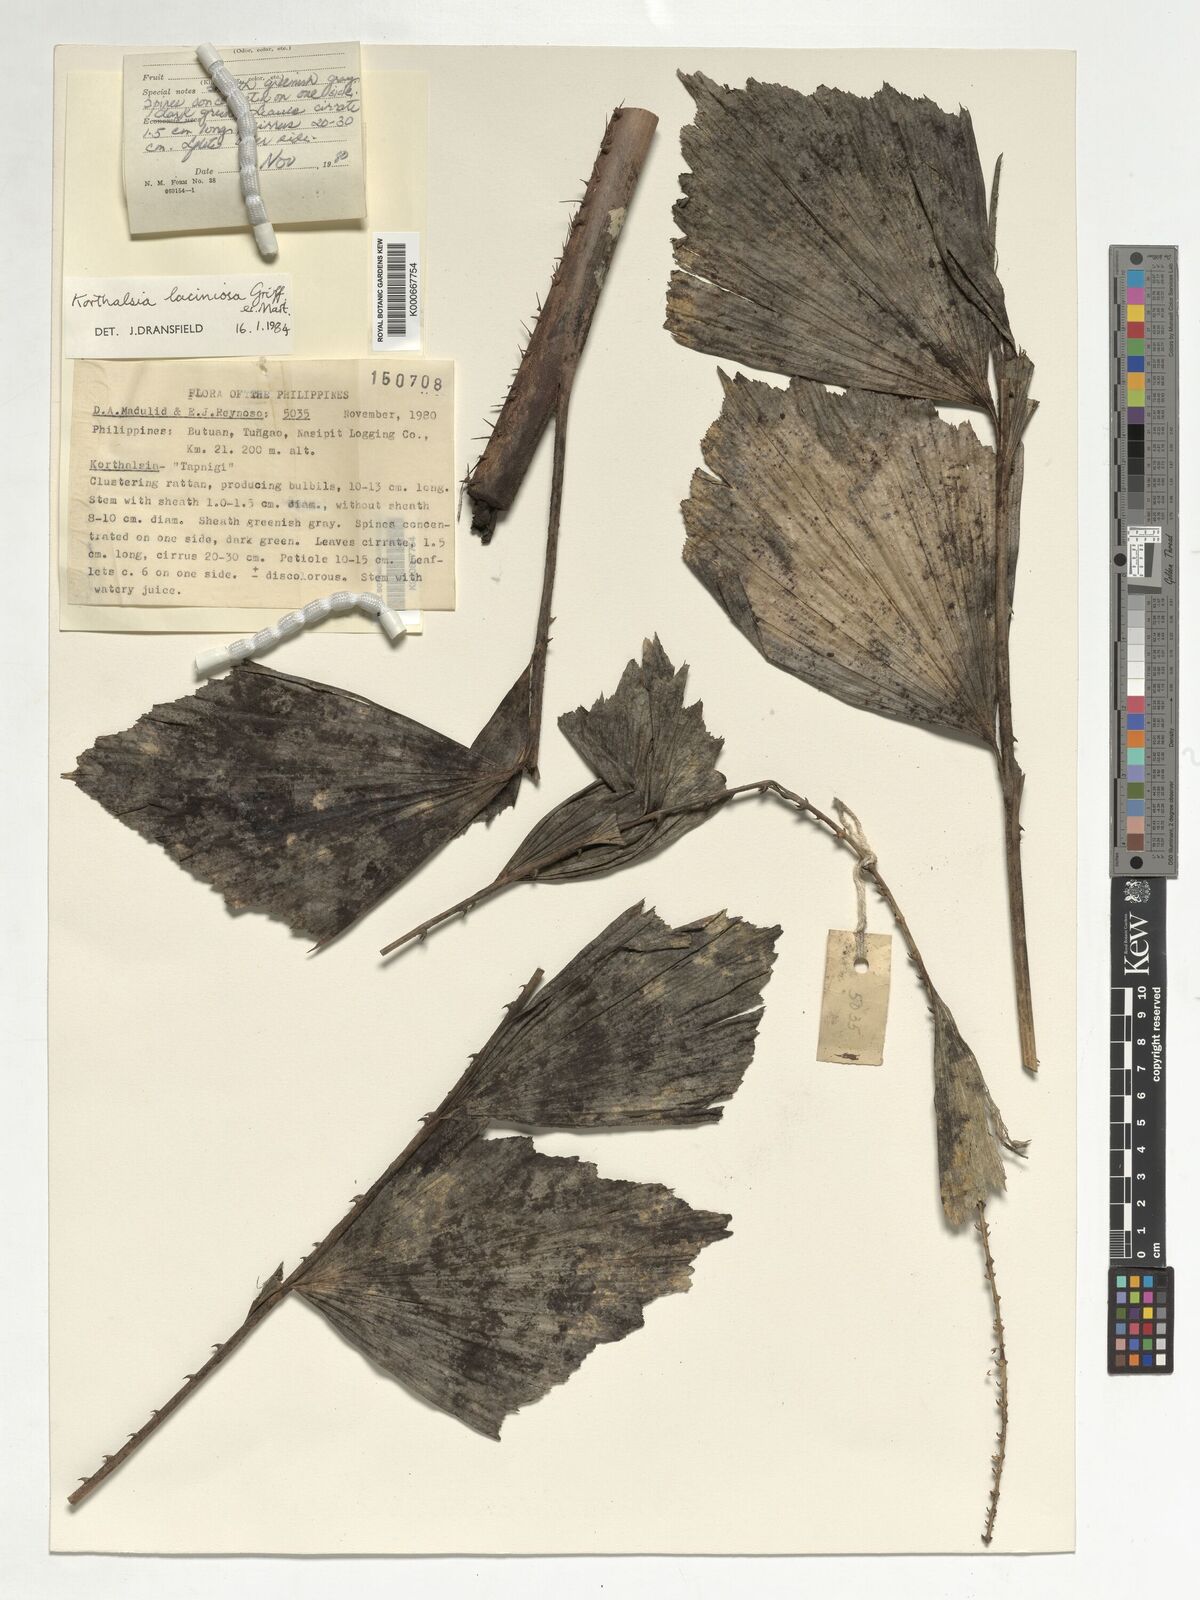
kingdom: Plantae
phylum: Tracheophyta
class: Liliopsida
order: Arecales
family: Arecaceae
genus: Korthalsia
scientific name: Korthalsia laciniosa
